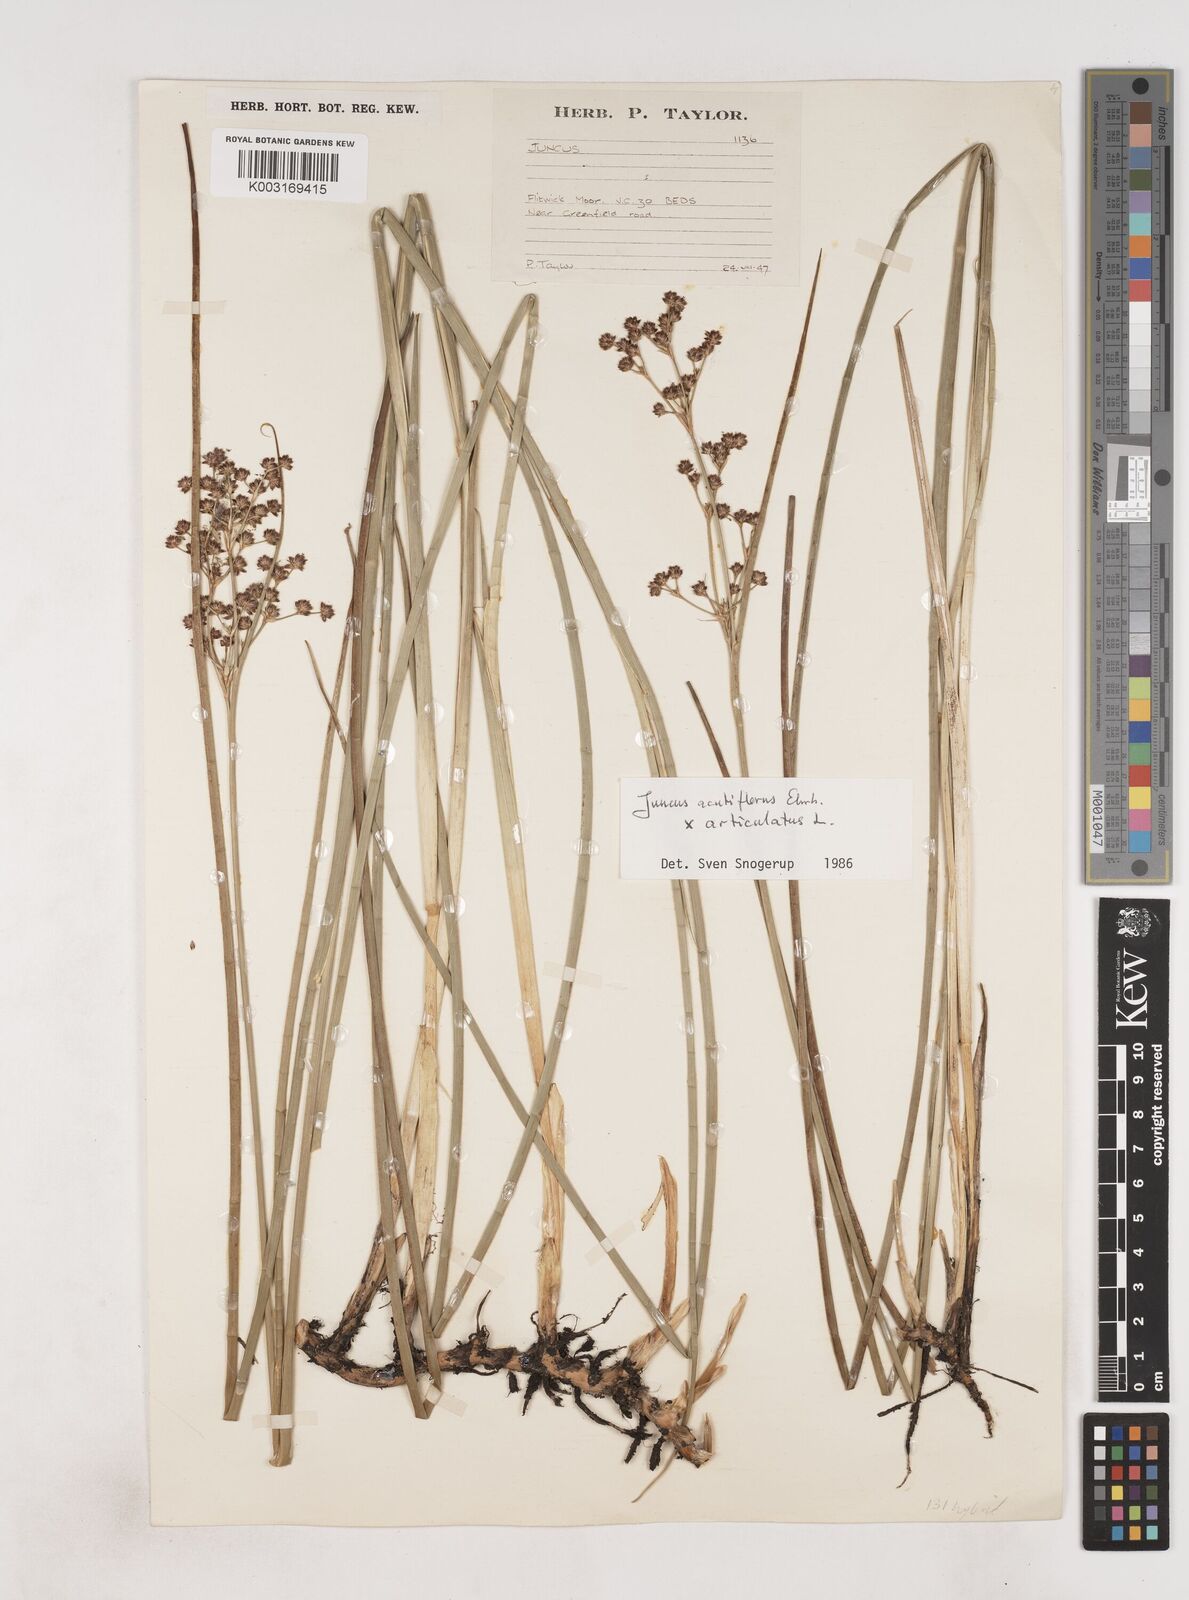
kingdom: Plantae
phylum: Tracheophyta
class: Liliopsida
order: Poales
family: Juncaceae
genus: Juncus
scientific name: Juncus acutiflorus
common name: Sharp-flowered rush
